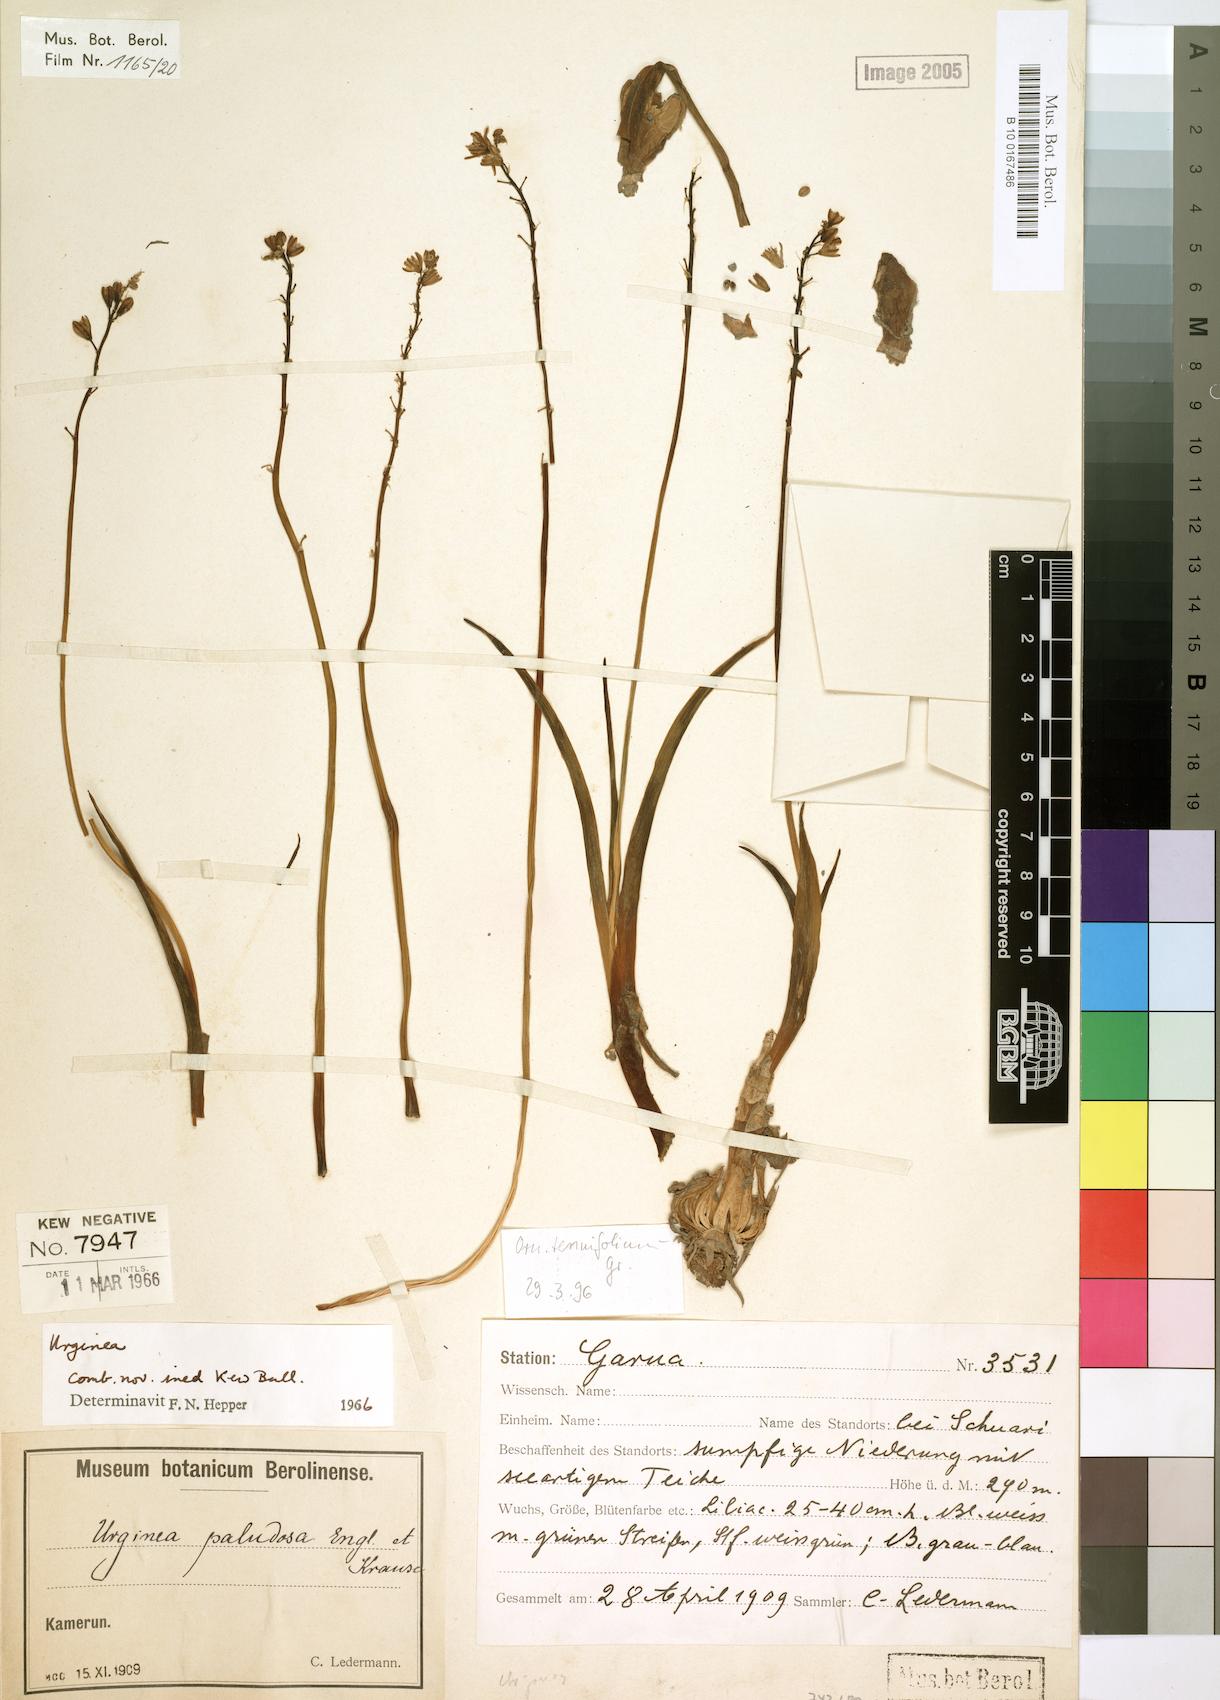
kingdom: Plantae
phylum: Tracheophyta
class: Liliopsida
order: Asparagales
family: Asparagaceae
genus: Drimia
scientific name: Drimia glaucescens
